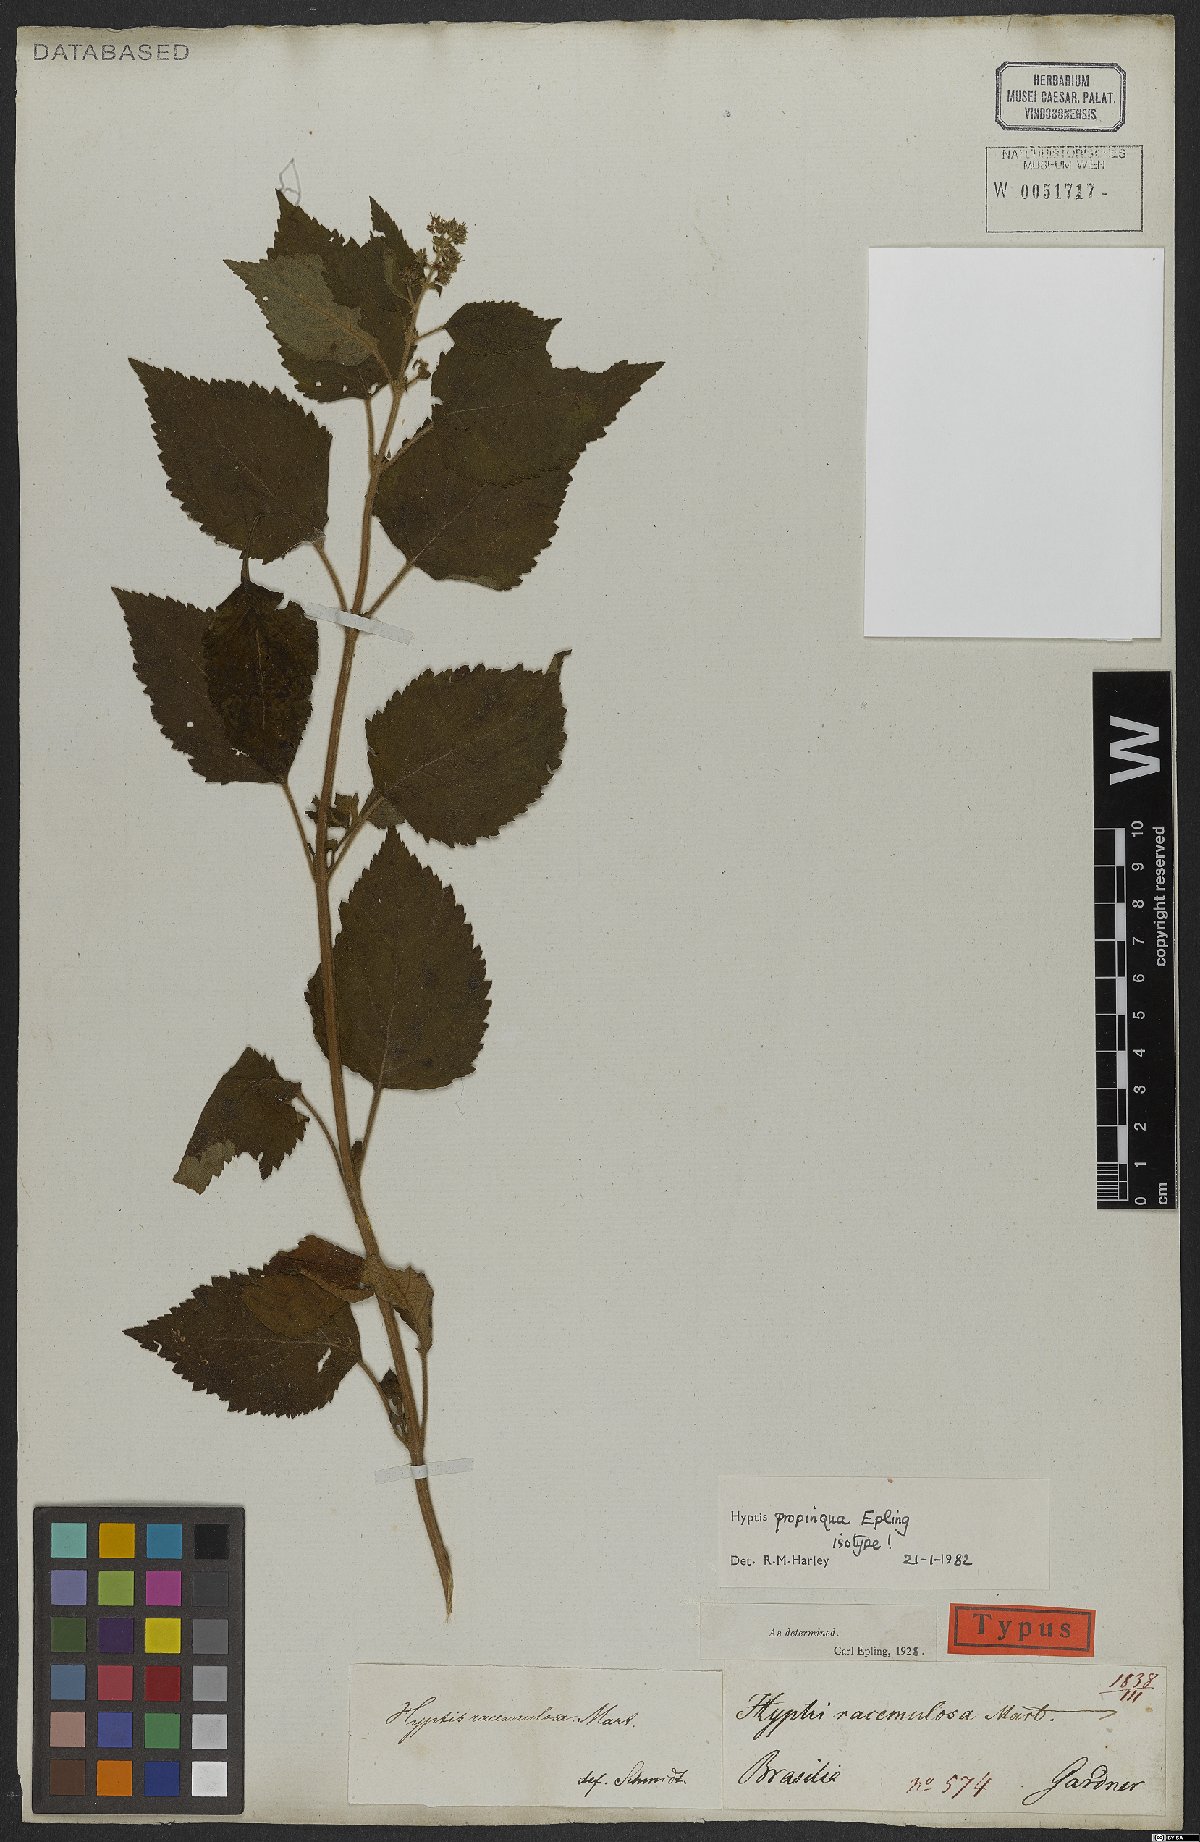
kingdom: Plantae
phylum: Tracheophyta
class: Magnoliopsida
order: Lamiales
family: Lamiaceae
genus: Cantinoa
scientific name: Cantinoa propinqua
